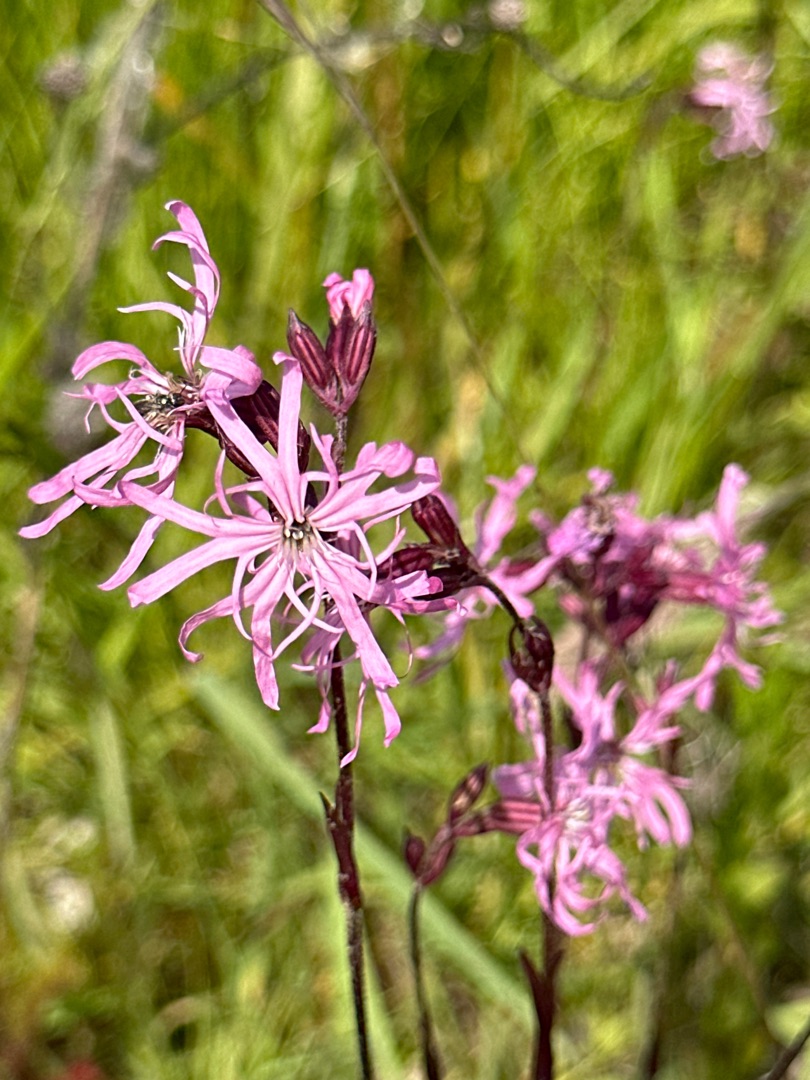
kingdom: Plantae
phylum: Tracheophyta
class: Magnoliopsida
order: Caryophyllales
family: Caryophyllaceae
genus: Silene
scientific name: Silene flos-cuculi
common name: Trævlekrone
